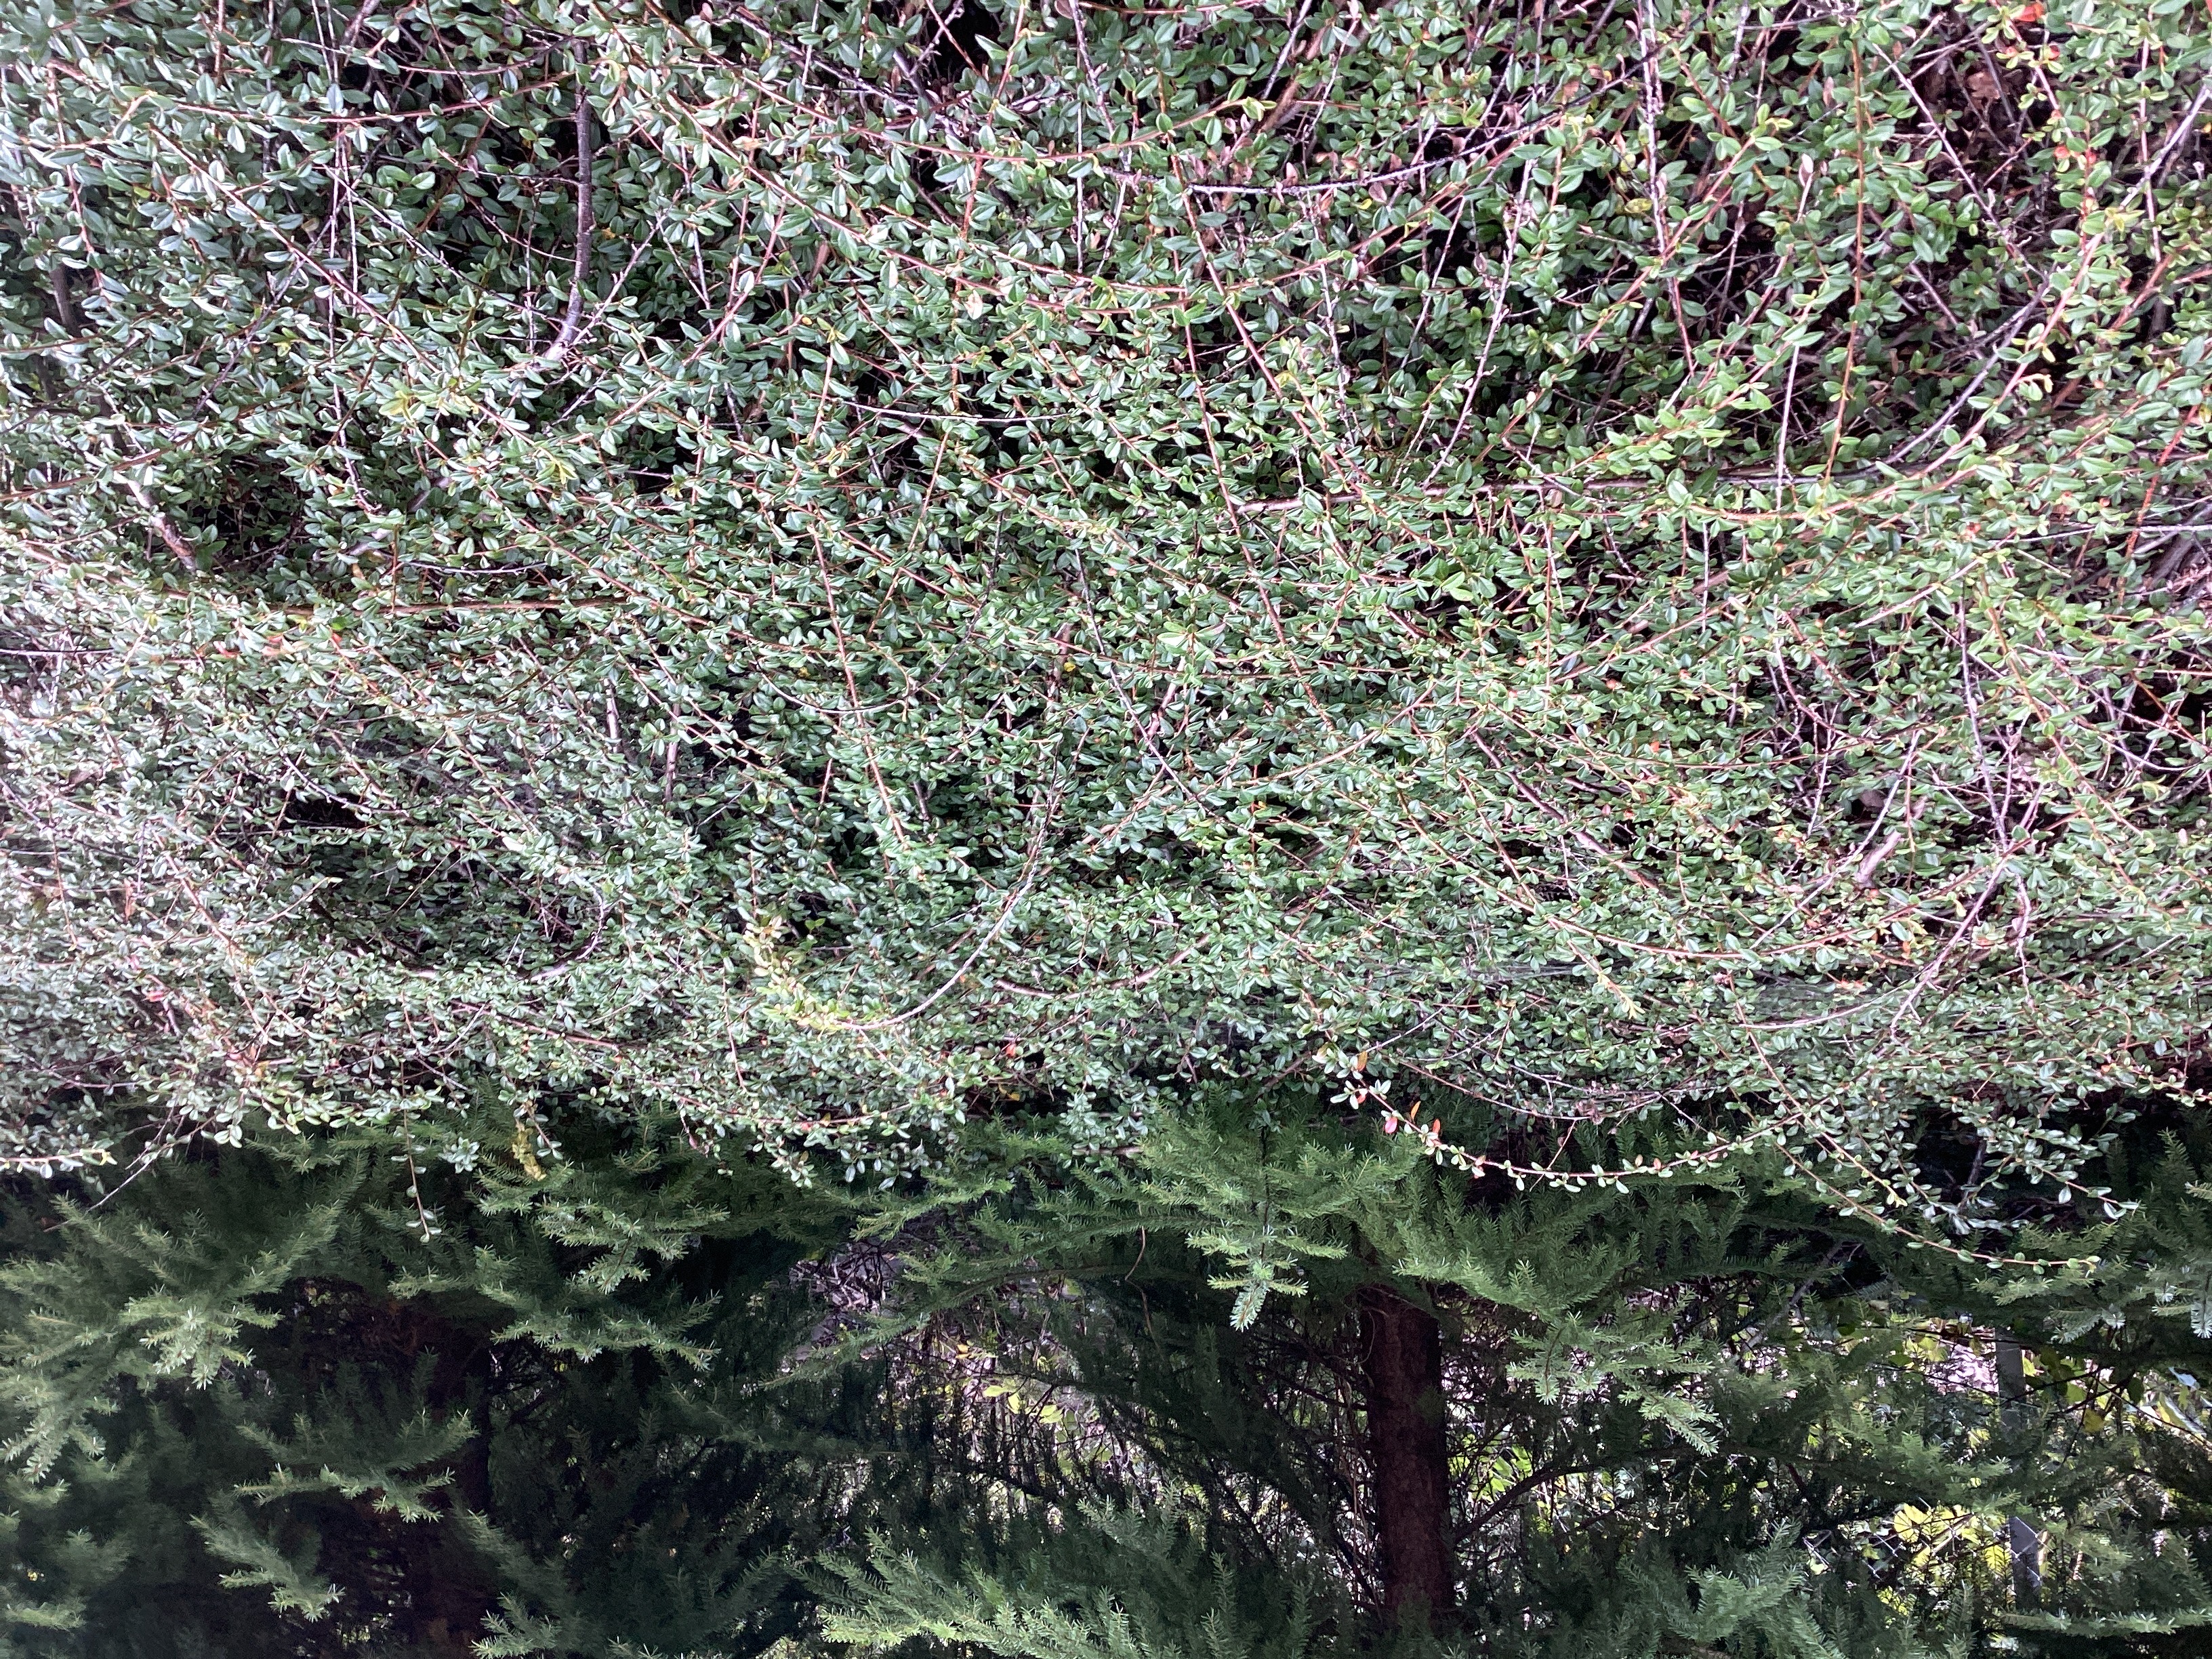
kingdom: Plantae
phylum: Tracheophyta
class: Magnoliopsida
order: Rosales
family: Rosaceae
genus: Cotoneaster
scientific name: Cotoneaster dammeri
